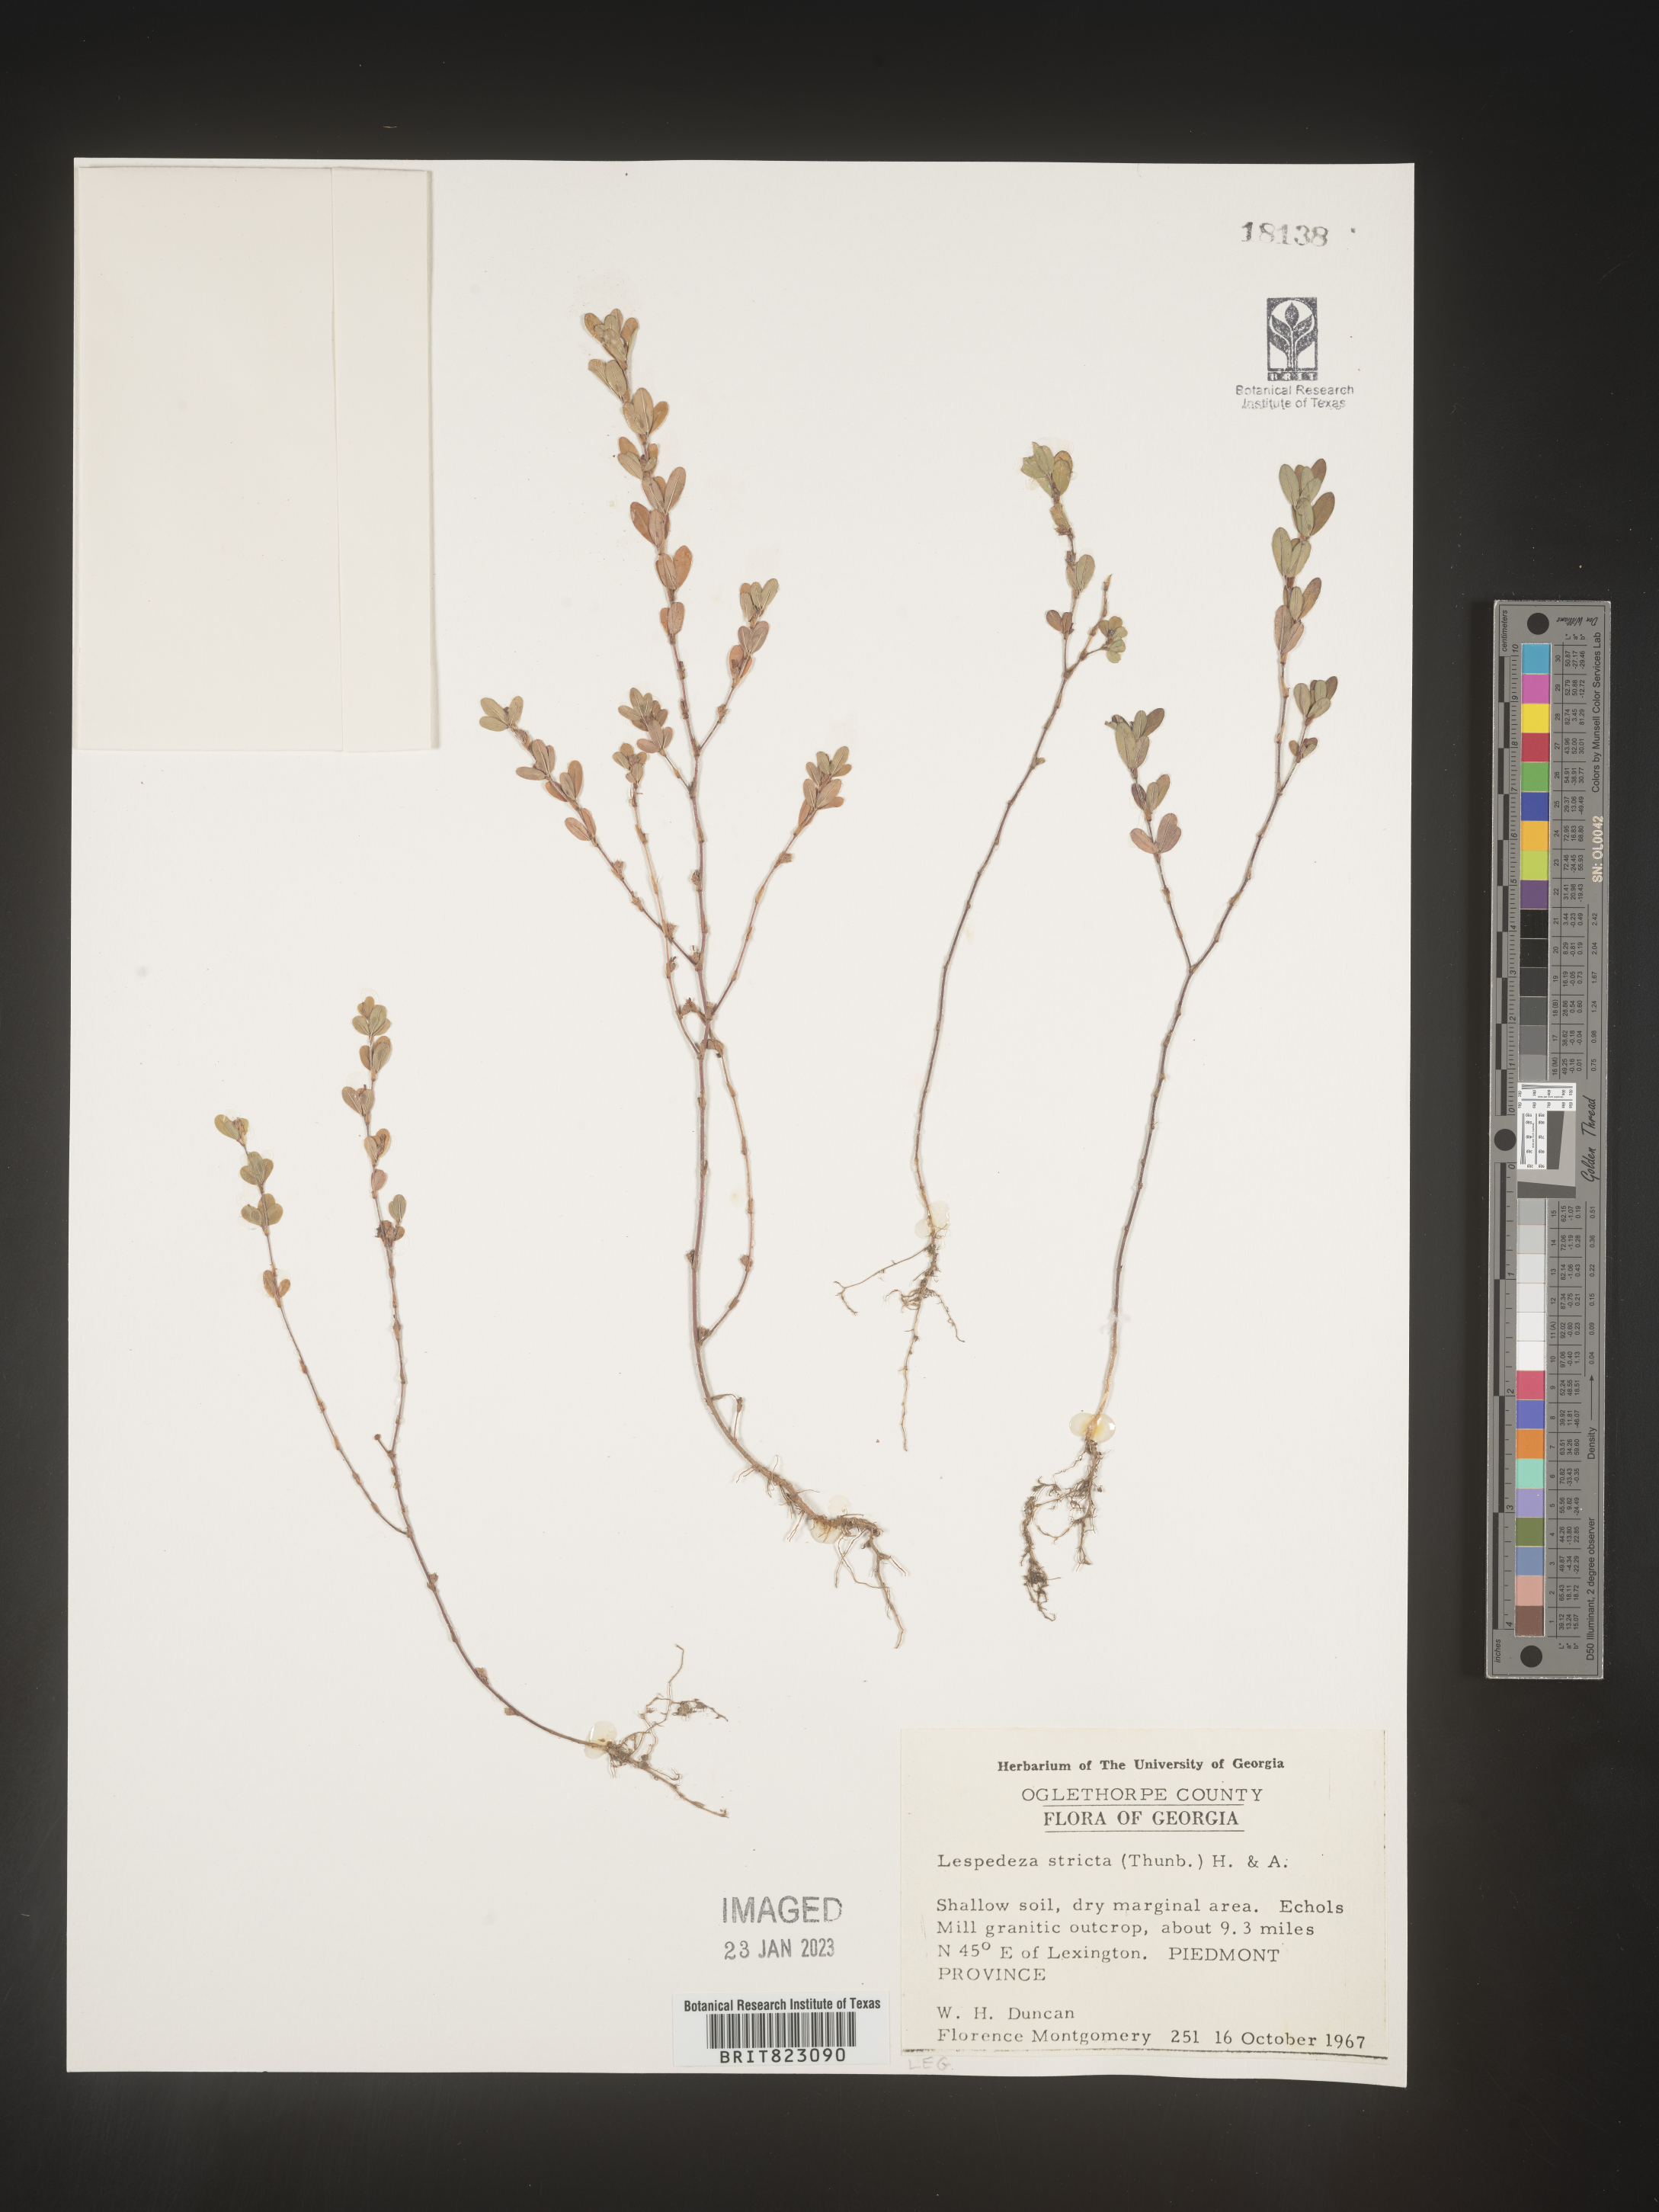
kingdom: Plantae
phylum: Tracheophyta
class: Magnoliopsida
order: Fabales
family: Fabaceae
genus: Kummerowia
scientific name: Kummerowia striata
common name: Japanese clover
